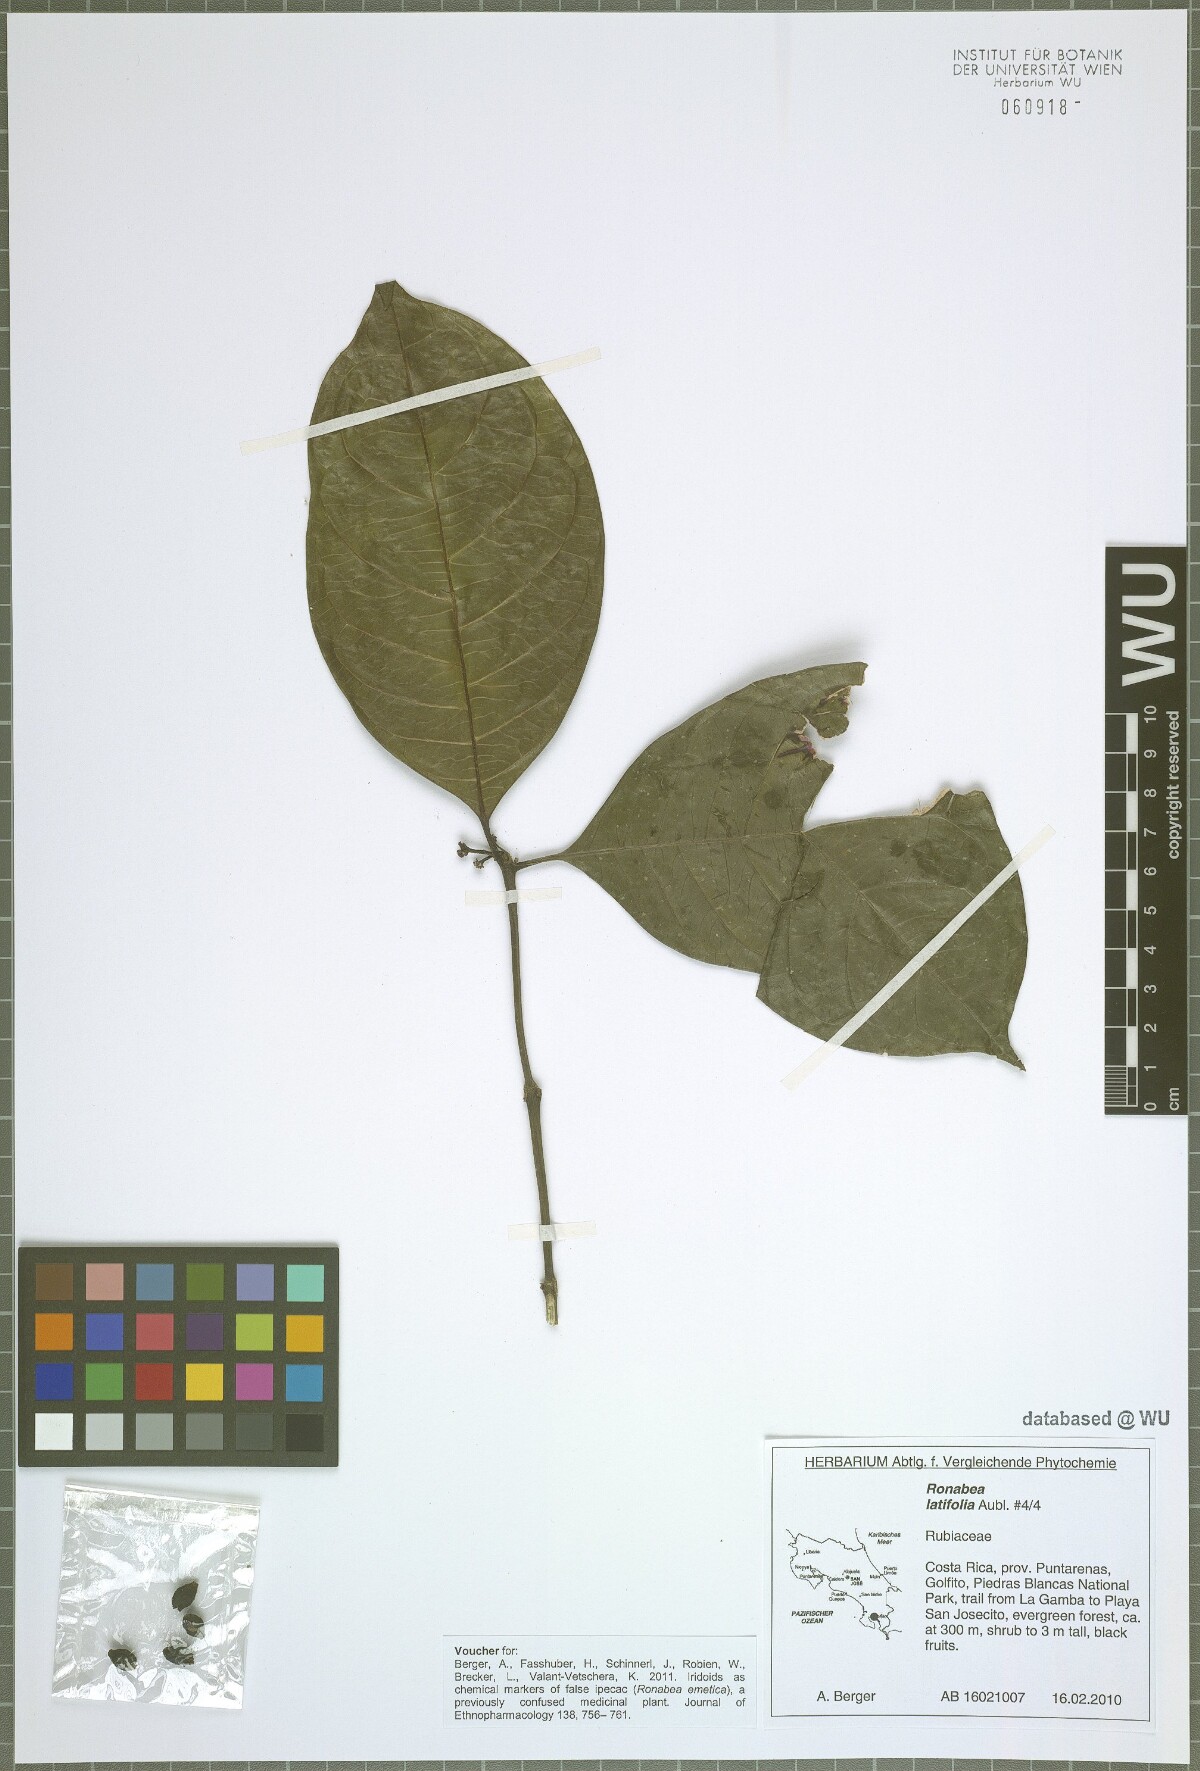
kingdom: Plantae
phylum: Tracheophyta
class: Magnoliopsida
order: Gentianales
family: Rubiaceae
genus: Ronabea
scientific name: Ronabea latifolia
